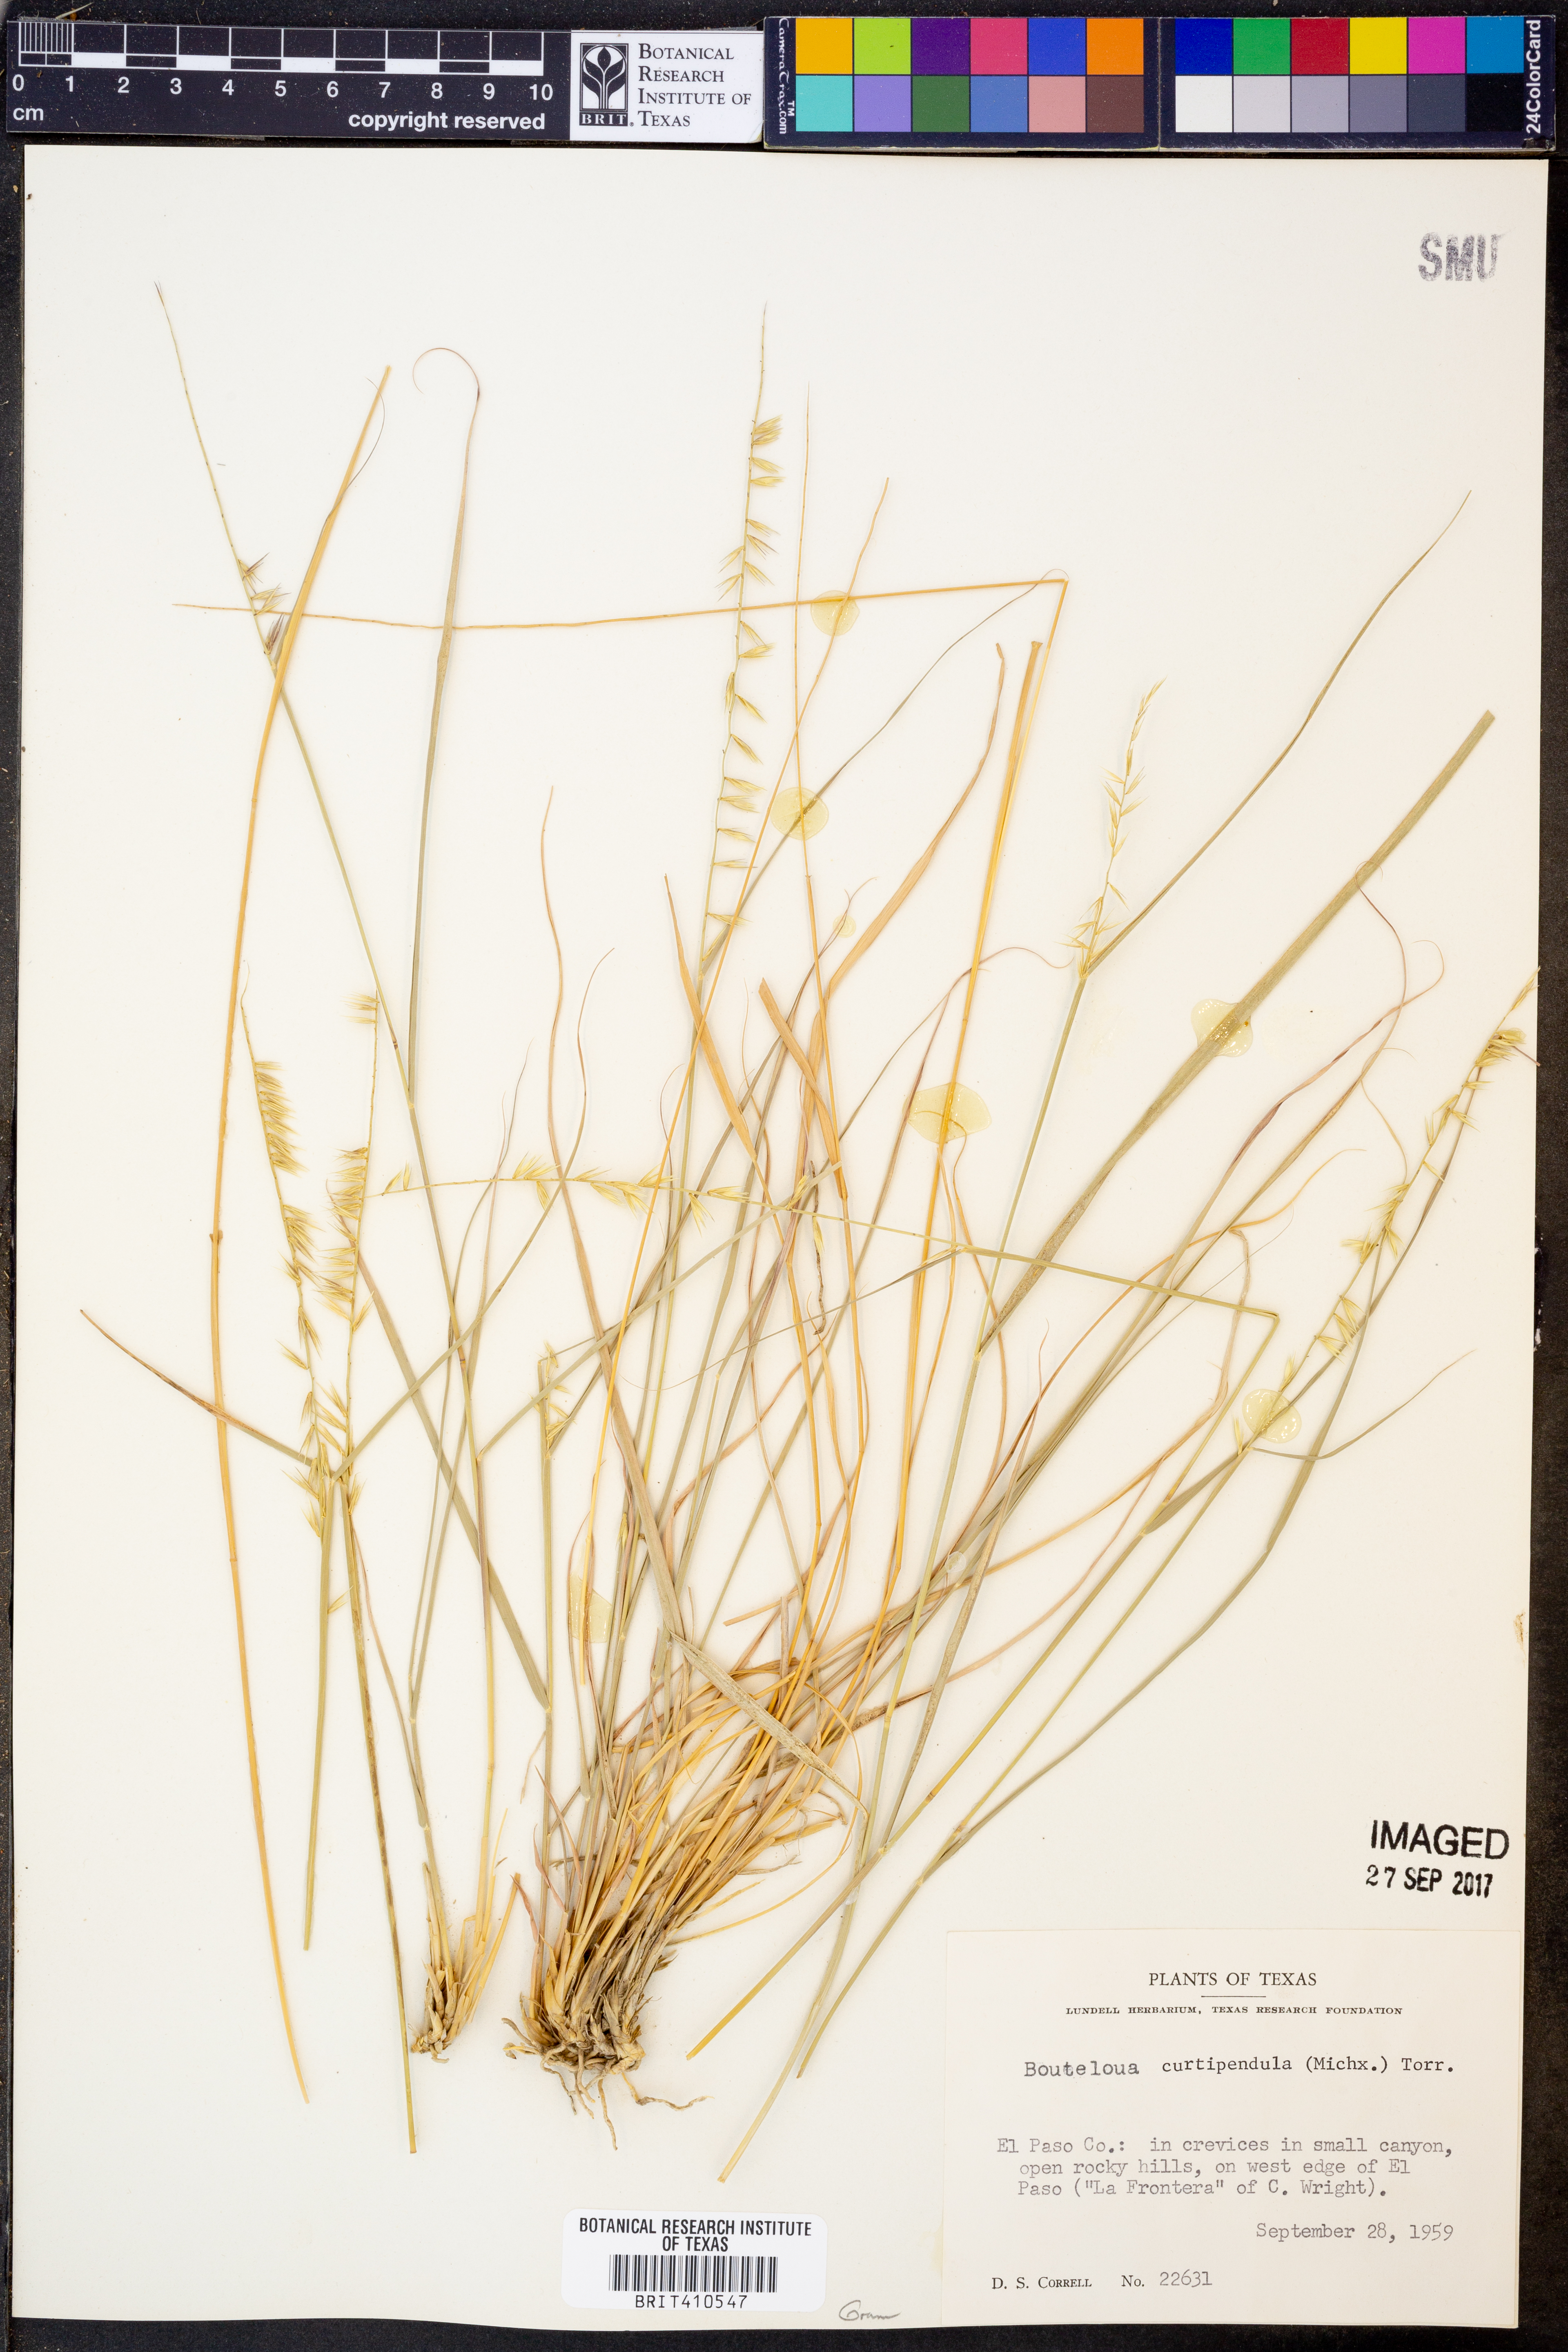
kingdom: Plantae
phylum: Tracheophyta
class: Liliopsida
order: Poales
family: Poaceae
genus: Bouteloua
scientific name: Bouteloua curtipendula
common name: Side-oats grama
